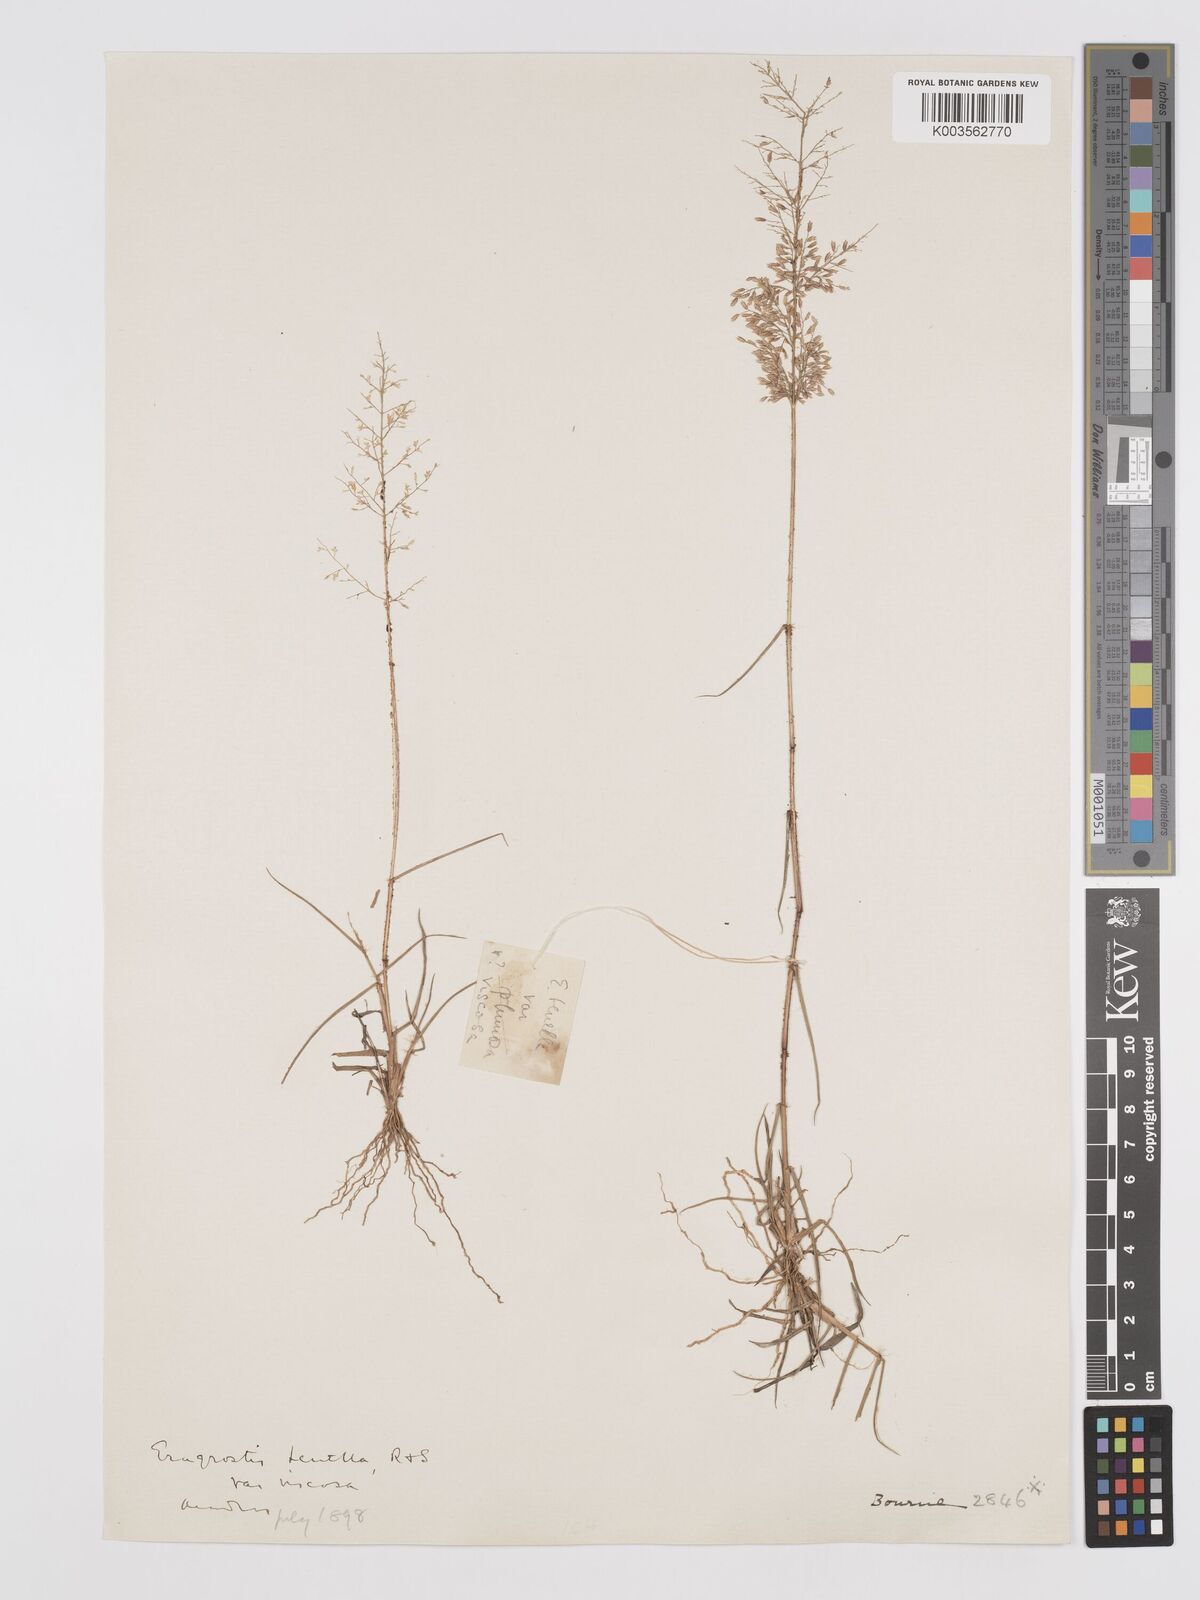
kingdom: Plantae
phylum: Tracheophyta
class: Liliopsida
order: Poales
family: Poaceae
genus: Eragrostis
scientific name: Eragrostis viscosa
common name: Sticky love grass
